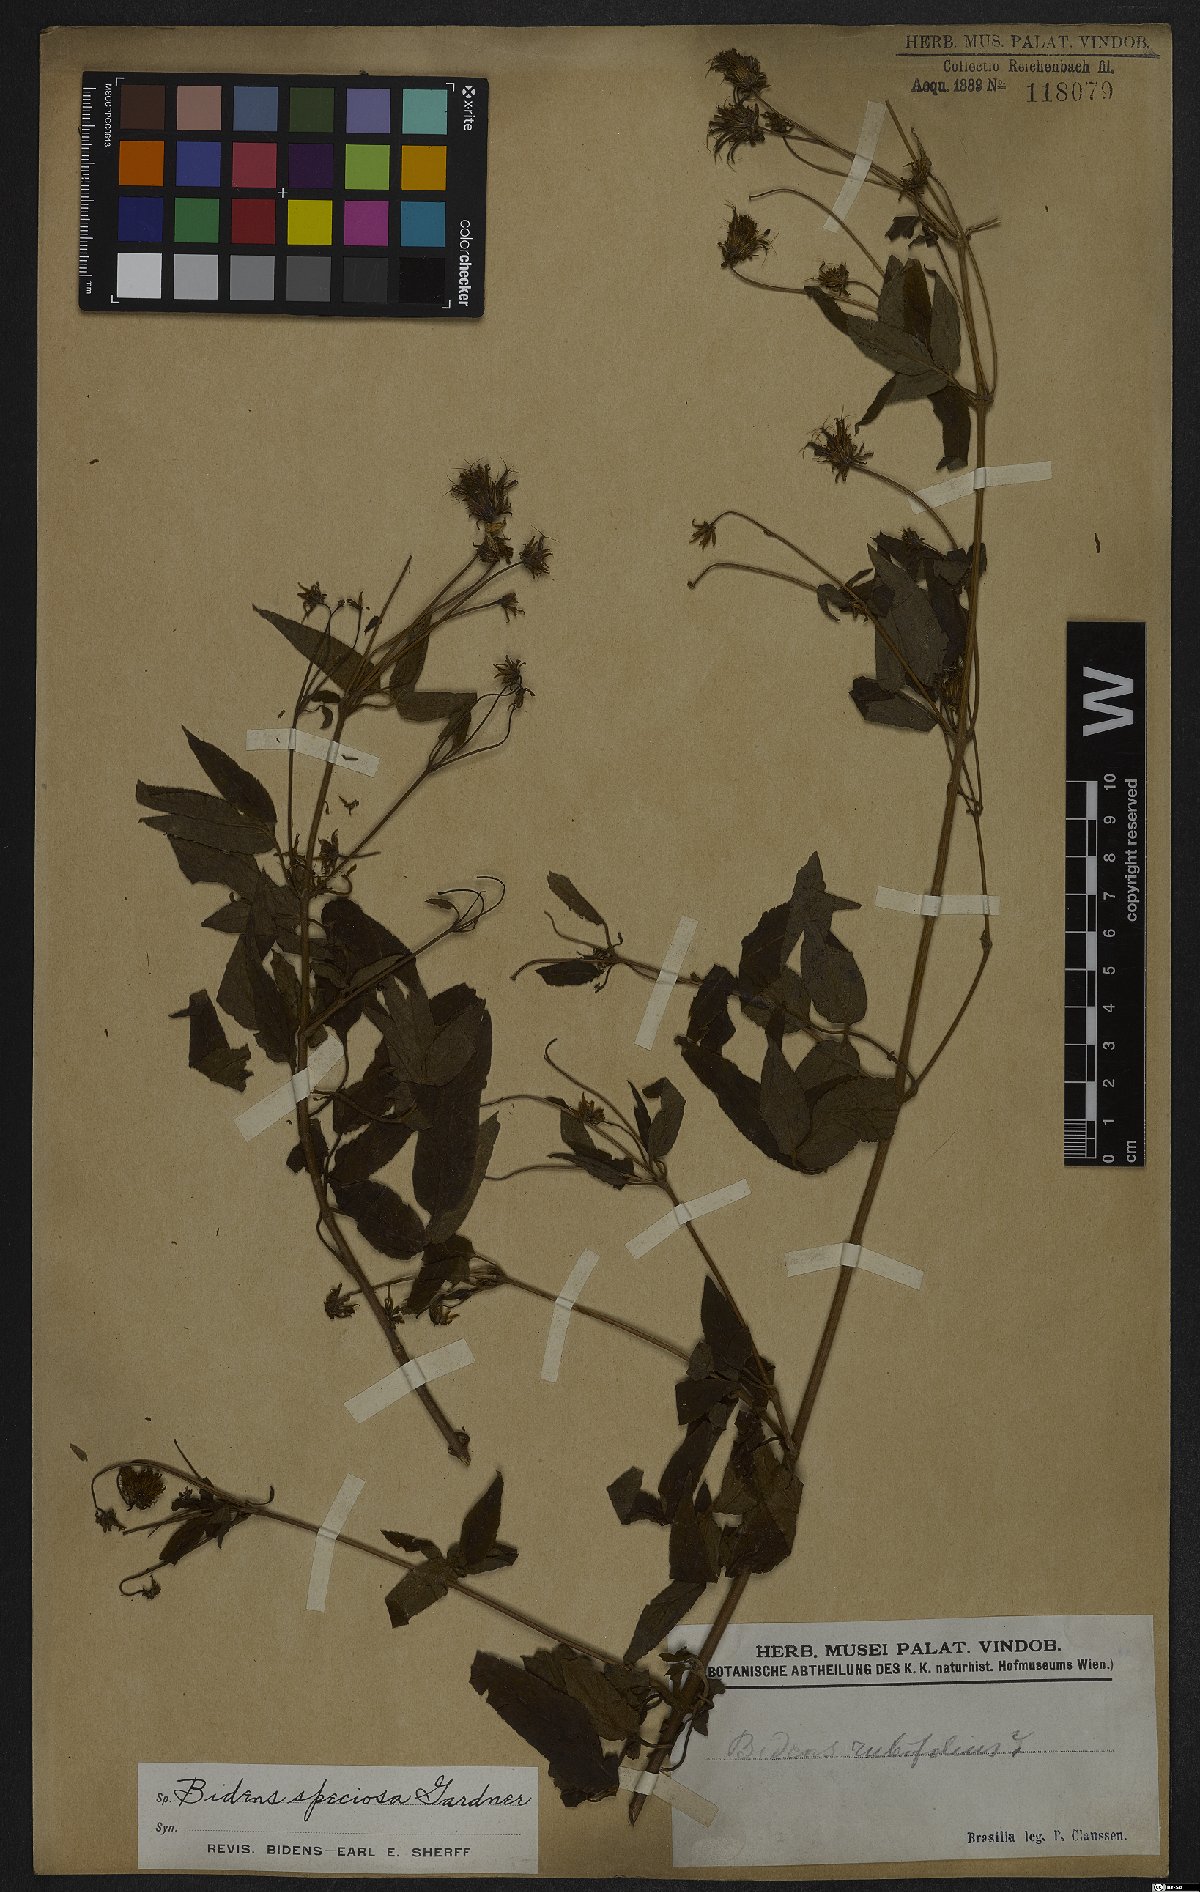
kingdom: Plantae
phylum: Tracheophyta
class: Magnoliopsida
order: Asterales
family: Asteraceae
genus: Bidens
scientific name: Bidens segetum
